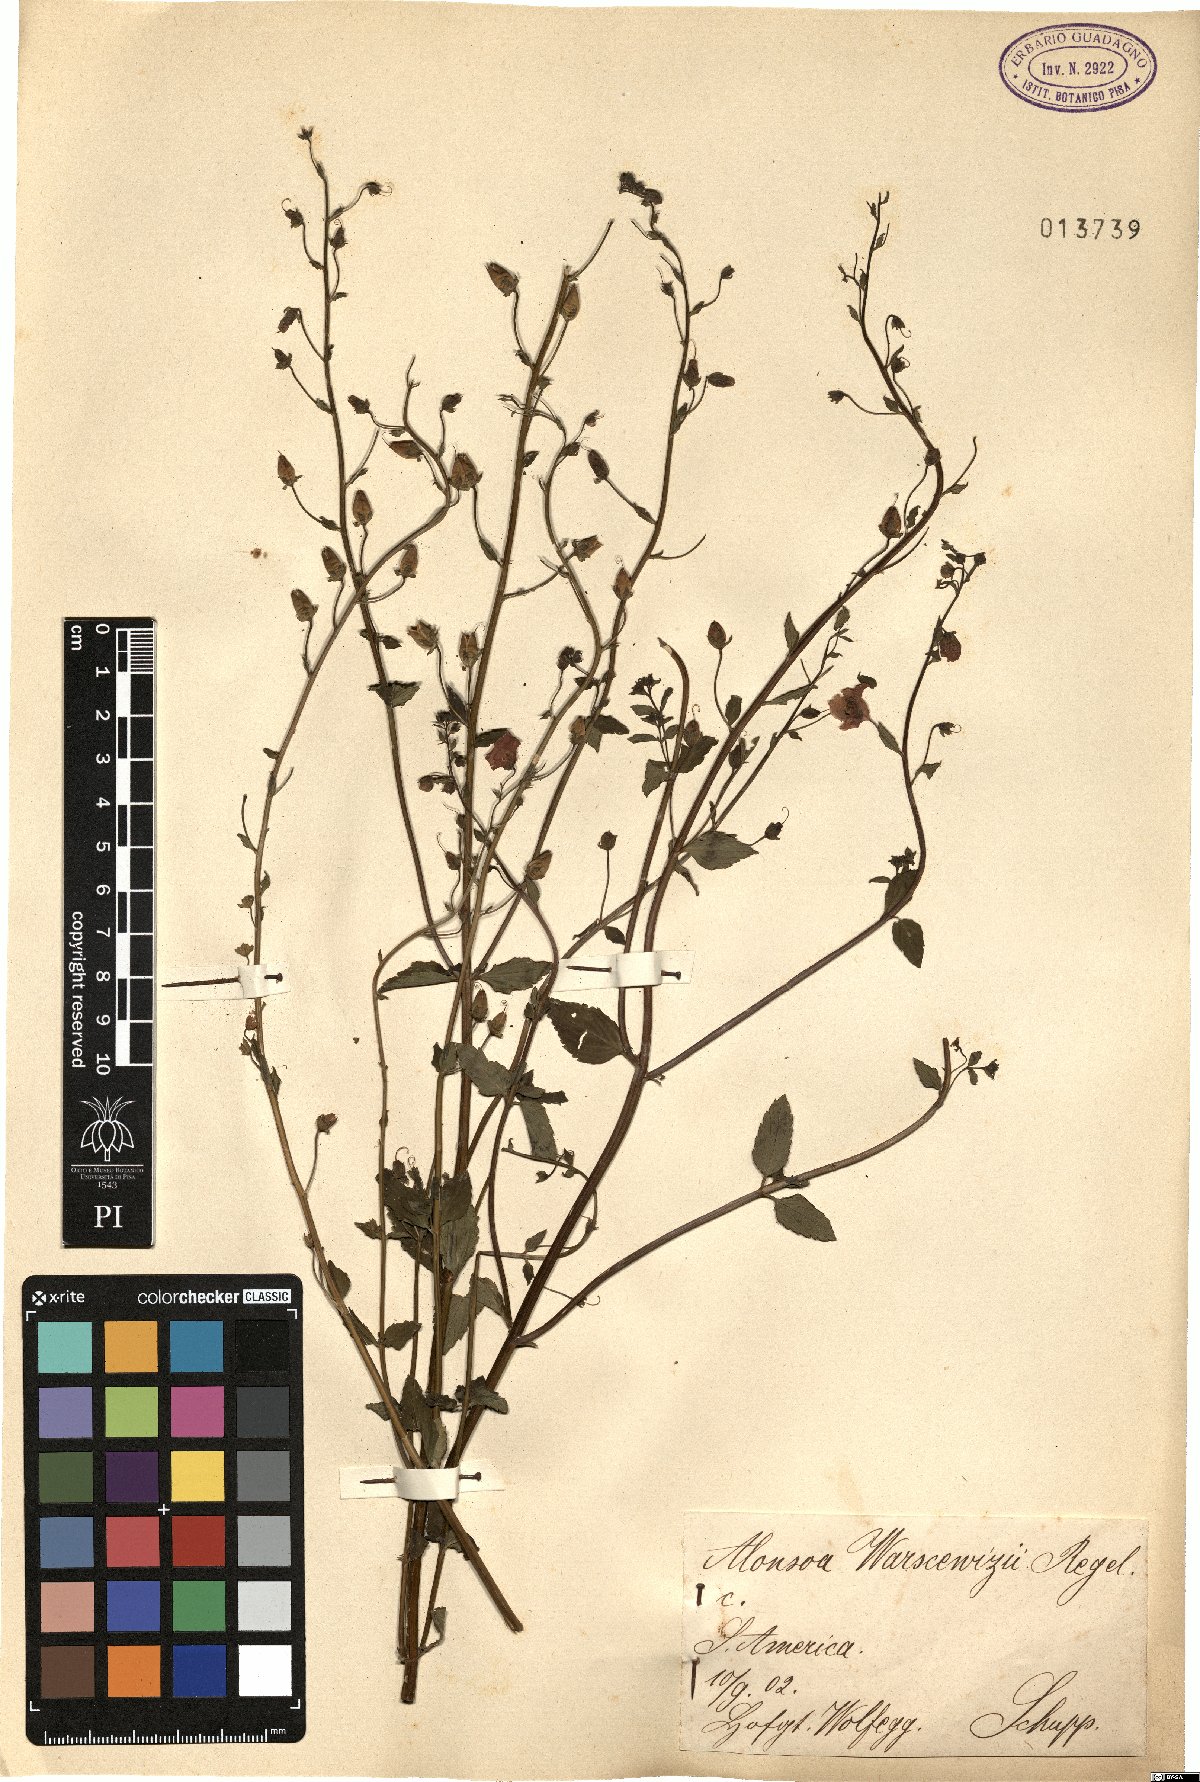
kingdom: Plantae
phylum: Tracheophyta
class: Magnoliopsida
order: Lamiales
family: Scrophulariaceae
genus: Alonsoa
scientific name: Alonsoa meridionalis
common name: Maskflower
